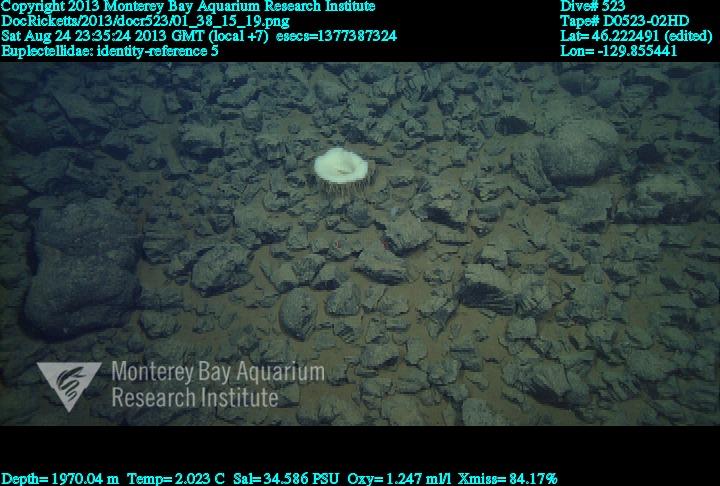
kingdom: Animalia
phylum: Porifera
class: Hexactinellida
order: Lyssacinosida
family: Euplectellidae
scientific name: Euplectellidae
